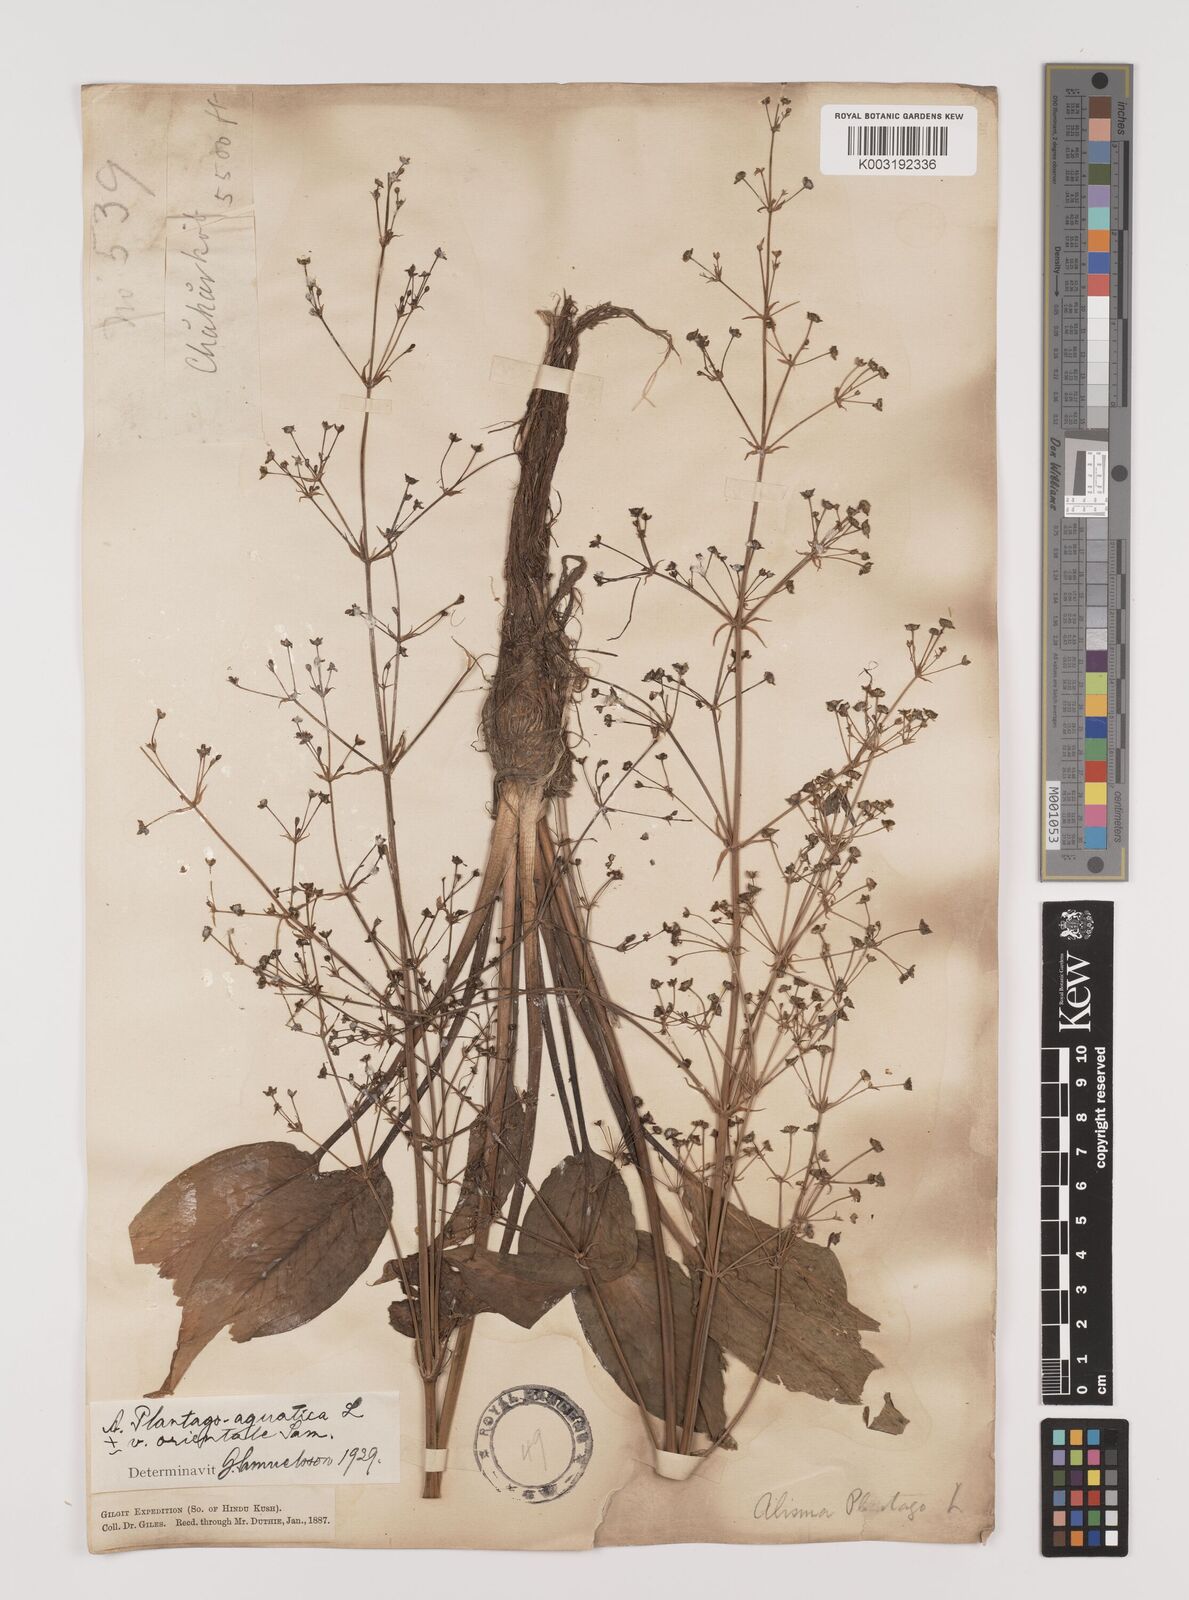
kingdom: Plantae
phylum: Tracheophyta
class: Liliopsida
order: Alismatales
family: Alismataceae
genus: Alisma
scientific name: Alisma plantago-aquatica
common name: Water-plantain
